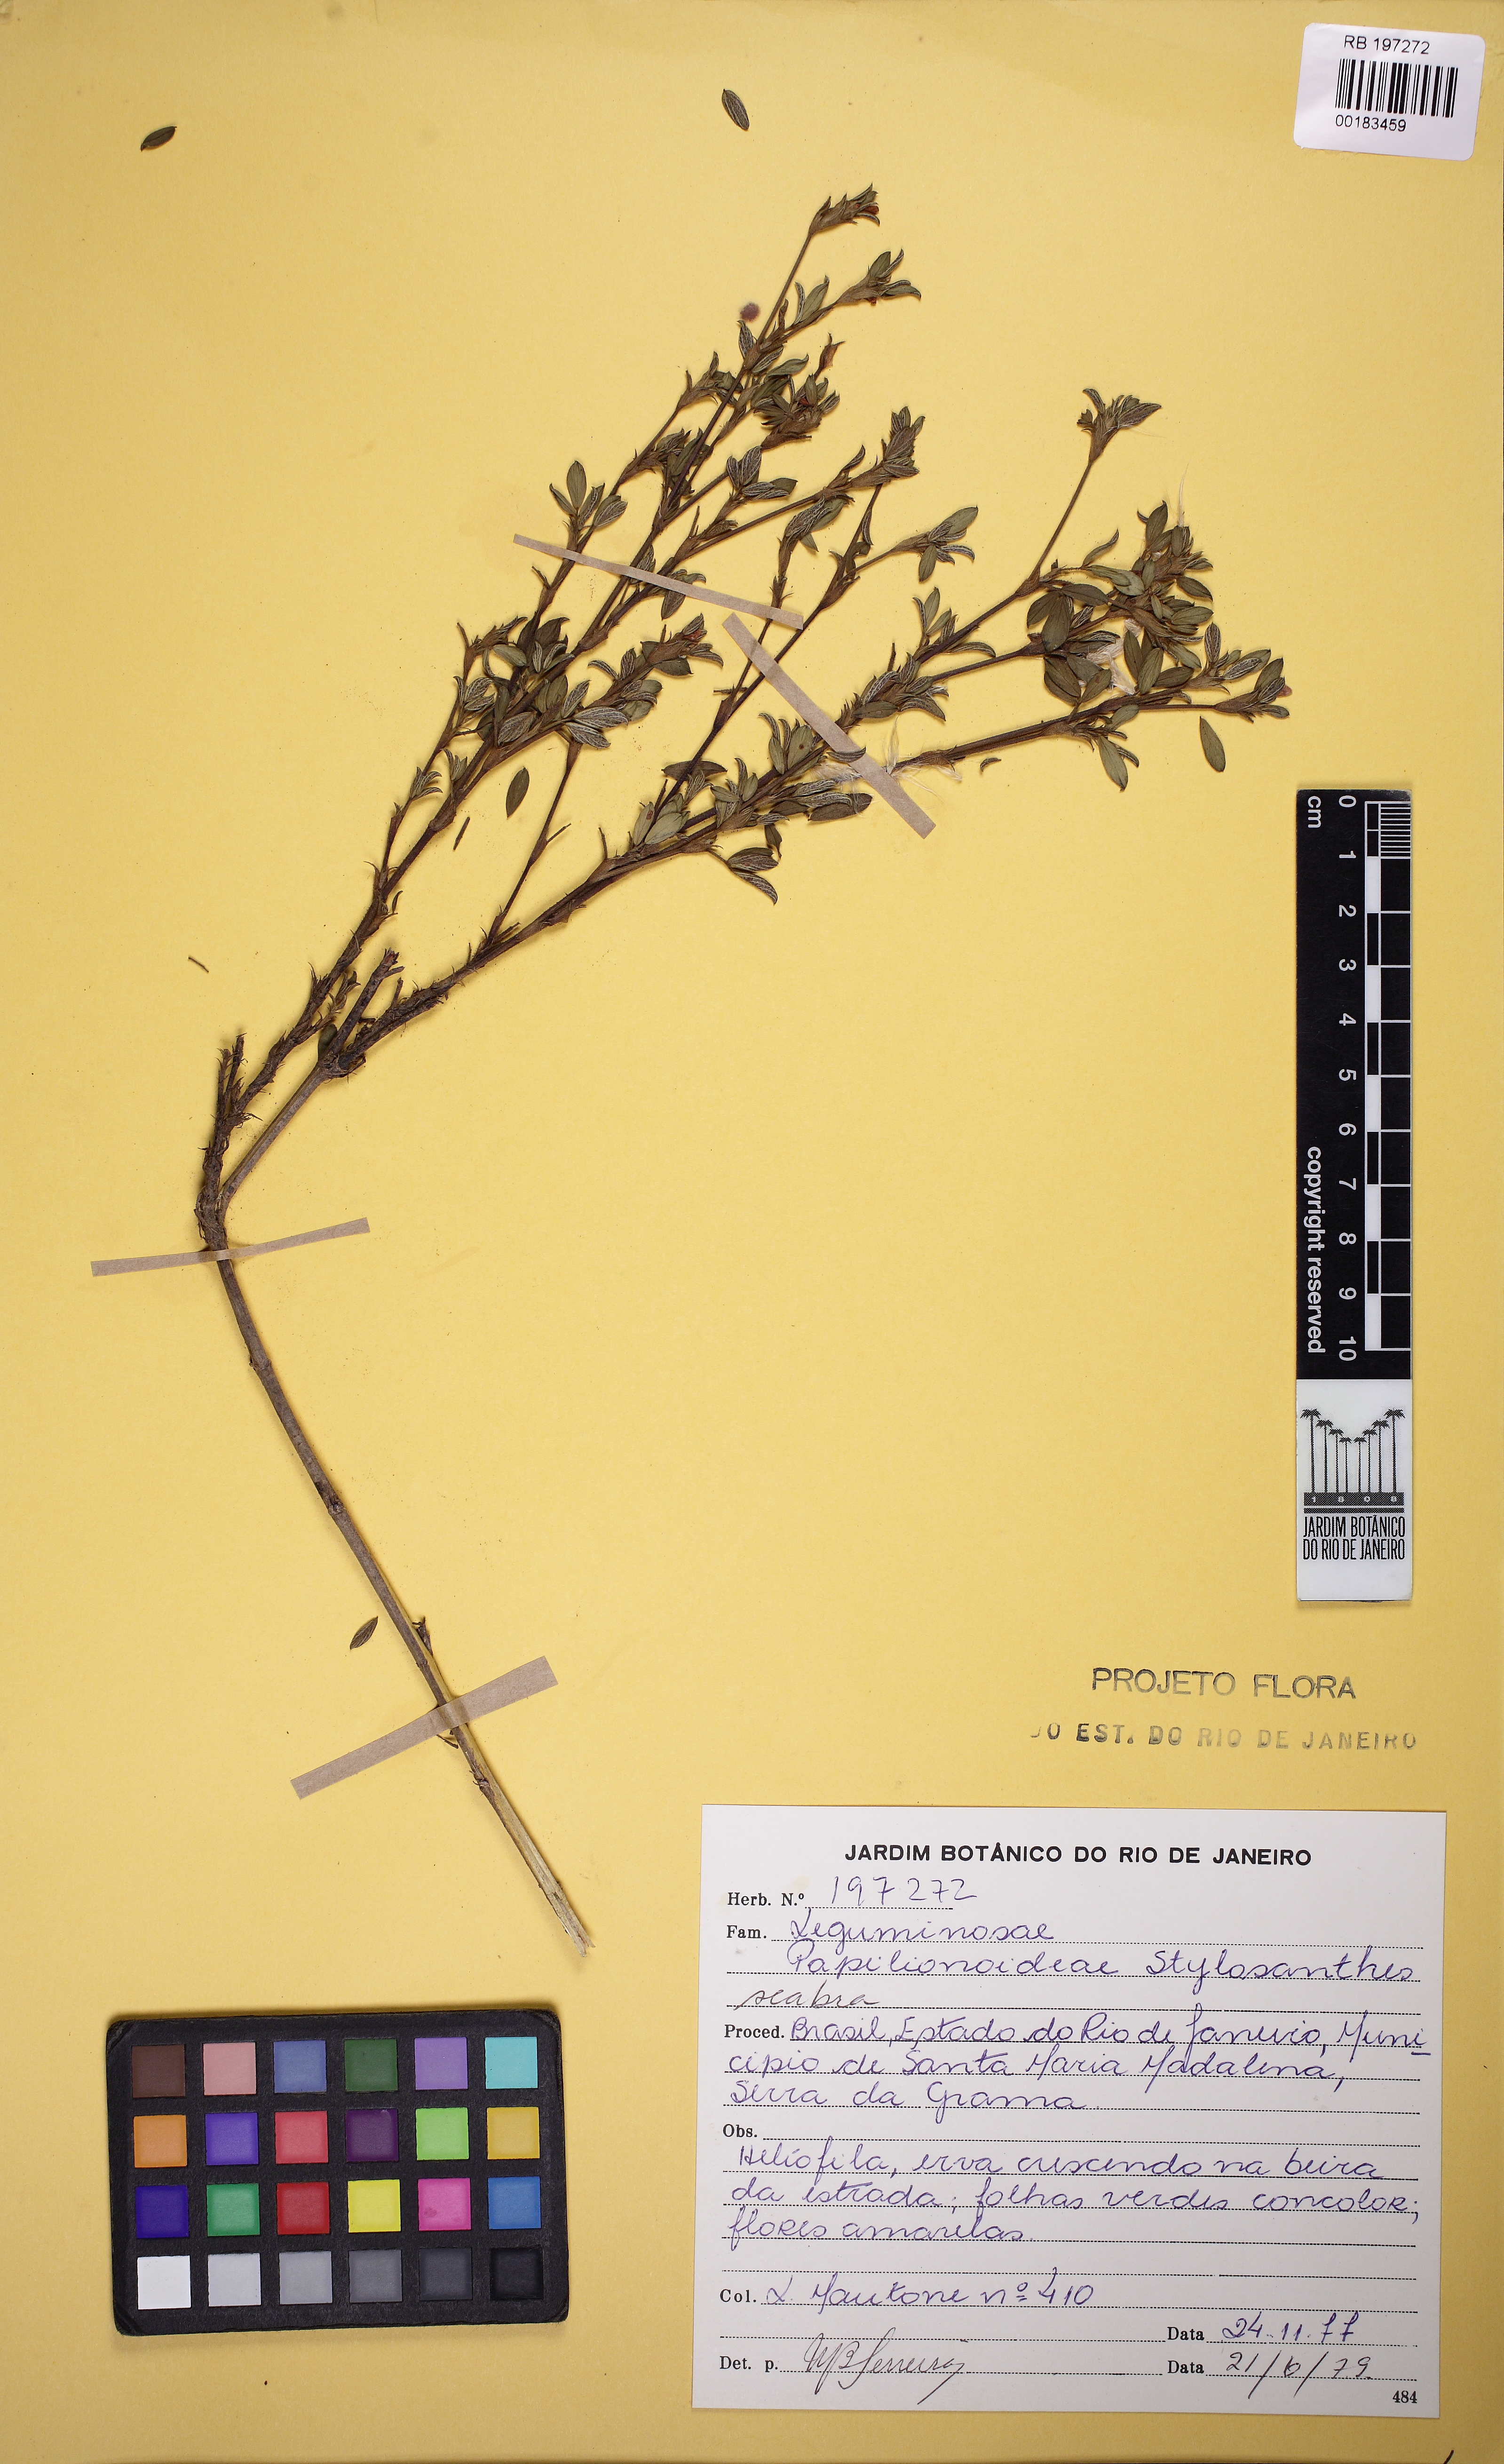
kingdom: Plantae
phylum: Tracheophyta
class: Magnoliopsida
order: Fabales
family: Fabaceae
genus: Stylosanthes
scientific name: Stylosanthes scabra
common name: Pencilflower
